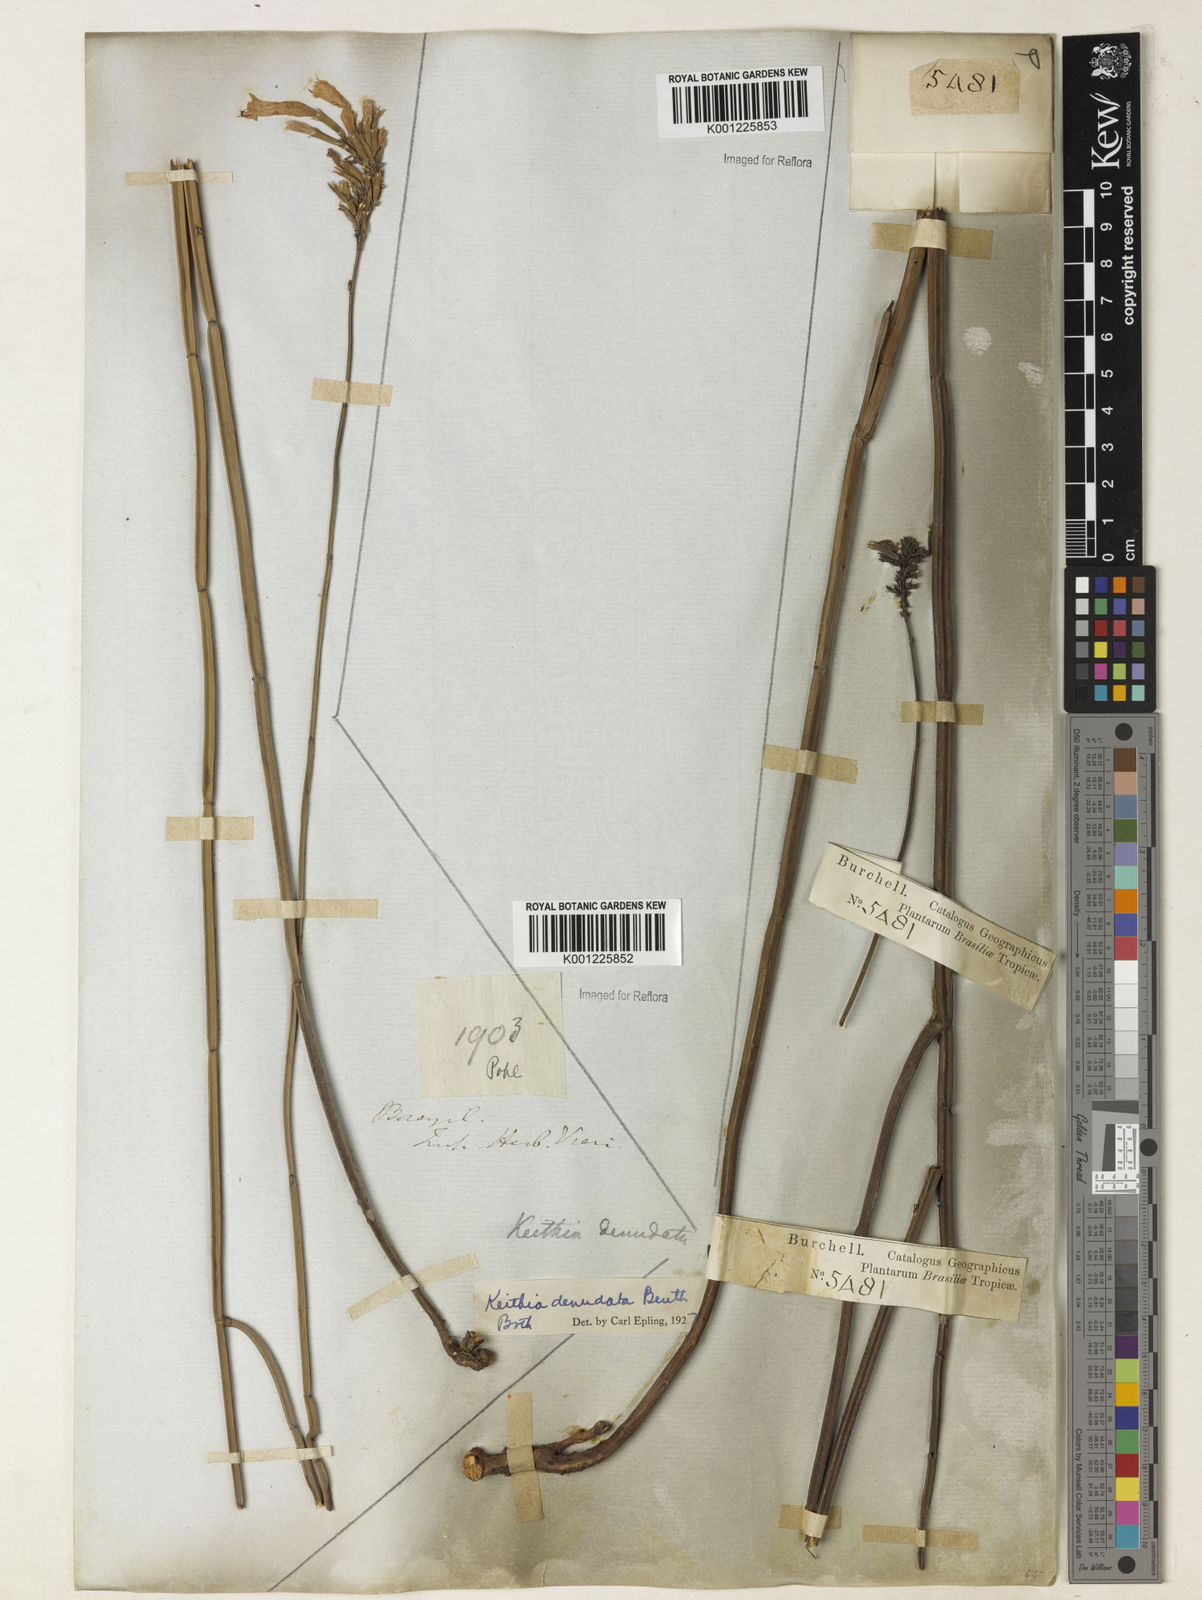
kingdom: Plantae
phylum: Tracheophyta
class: Magnoliopsida
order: Lamiales
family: Lamiaceae
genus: Rhabdocaulon
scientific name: Rhabdocaulon denudatum
